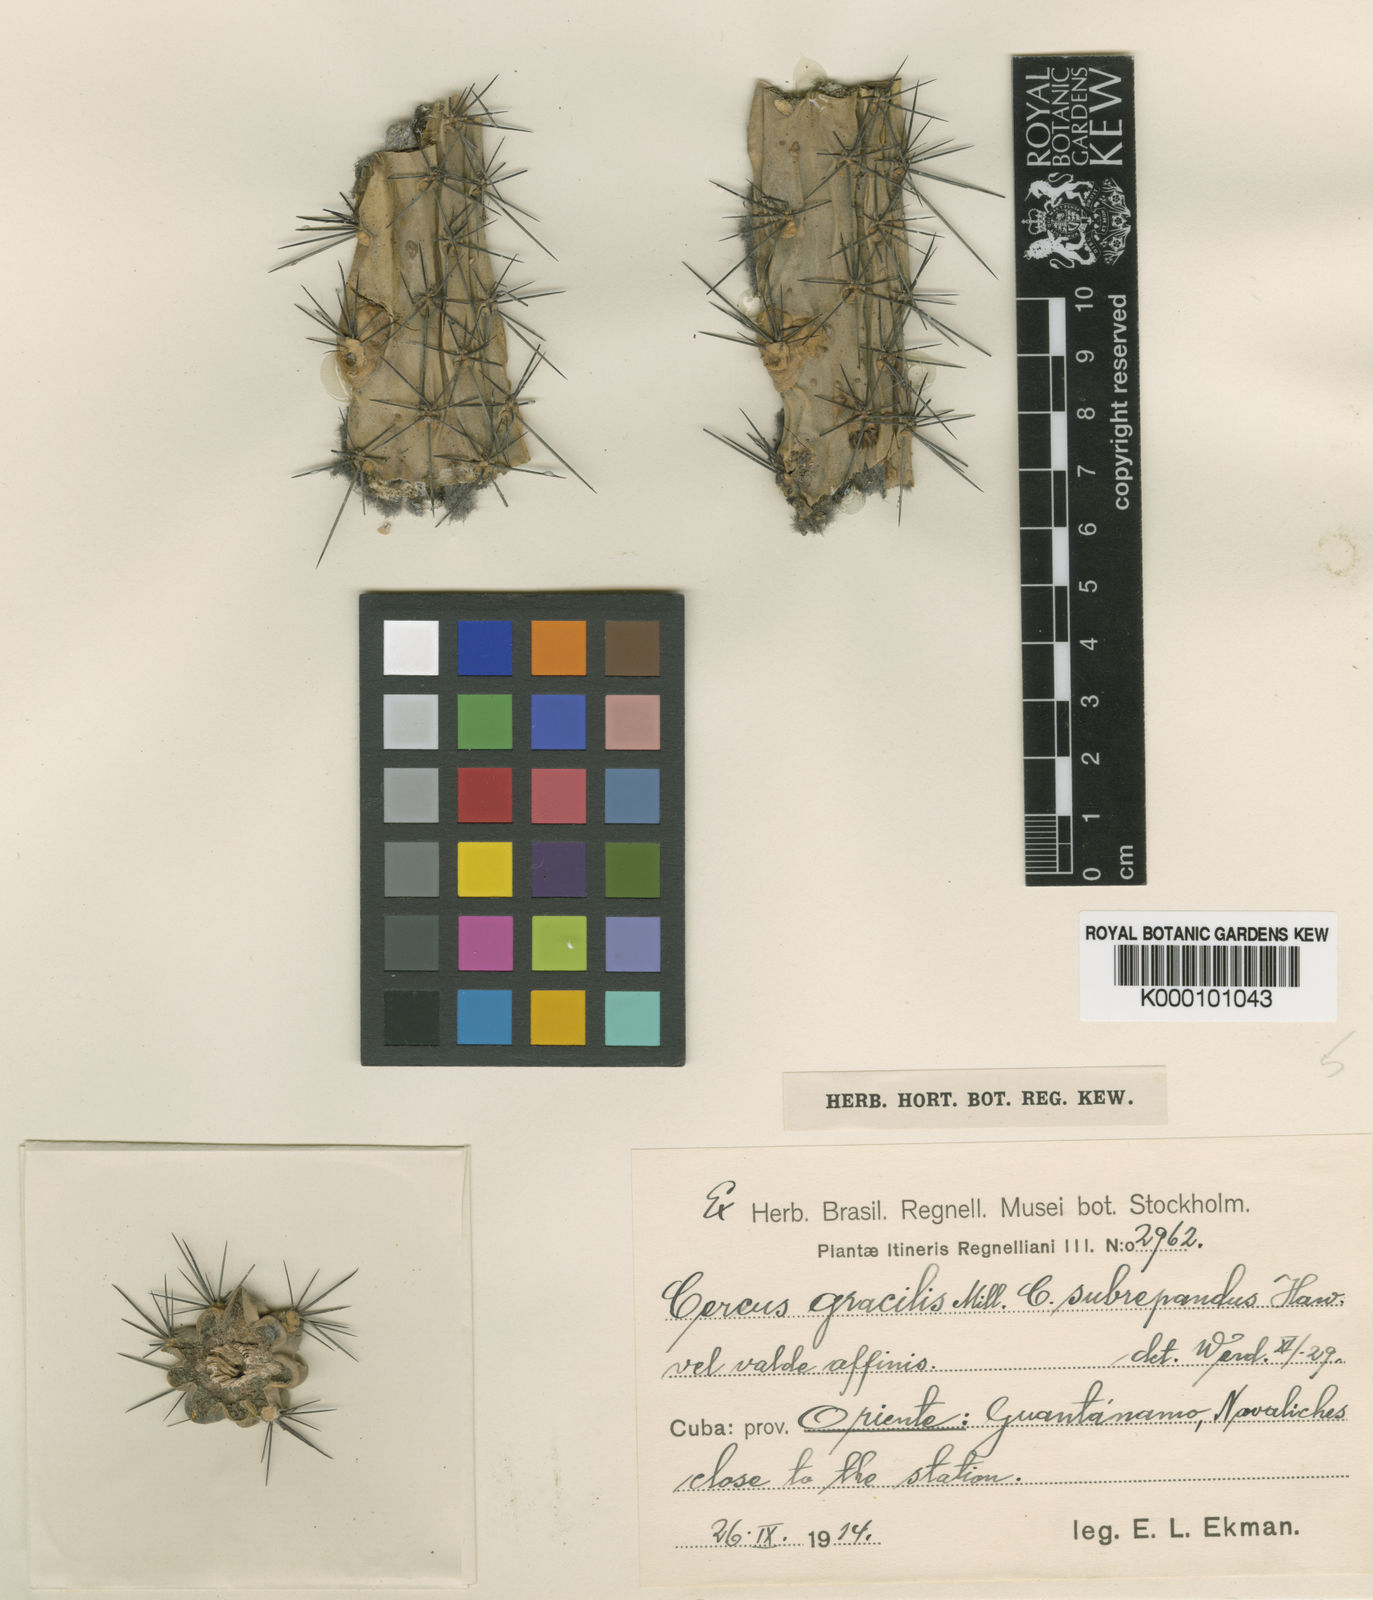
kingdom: Plantae
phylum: Tracheophyta
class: Magnoliopsida
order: Caryophyllales
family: Cactaceae
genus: Harrisia
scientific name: Harrisia gracilis
